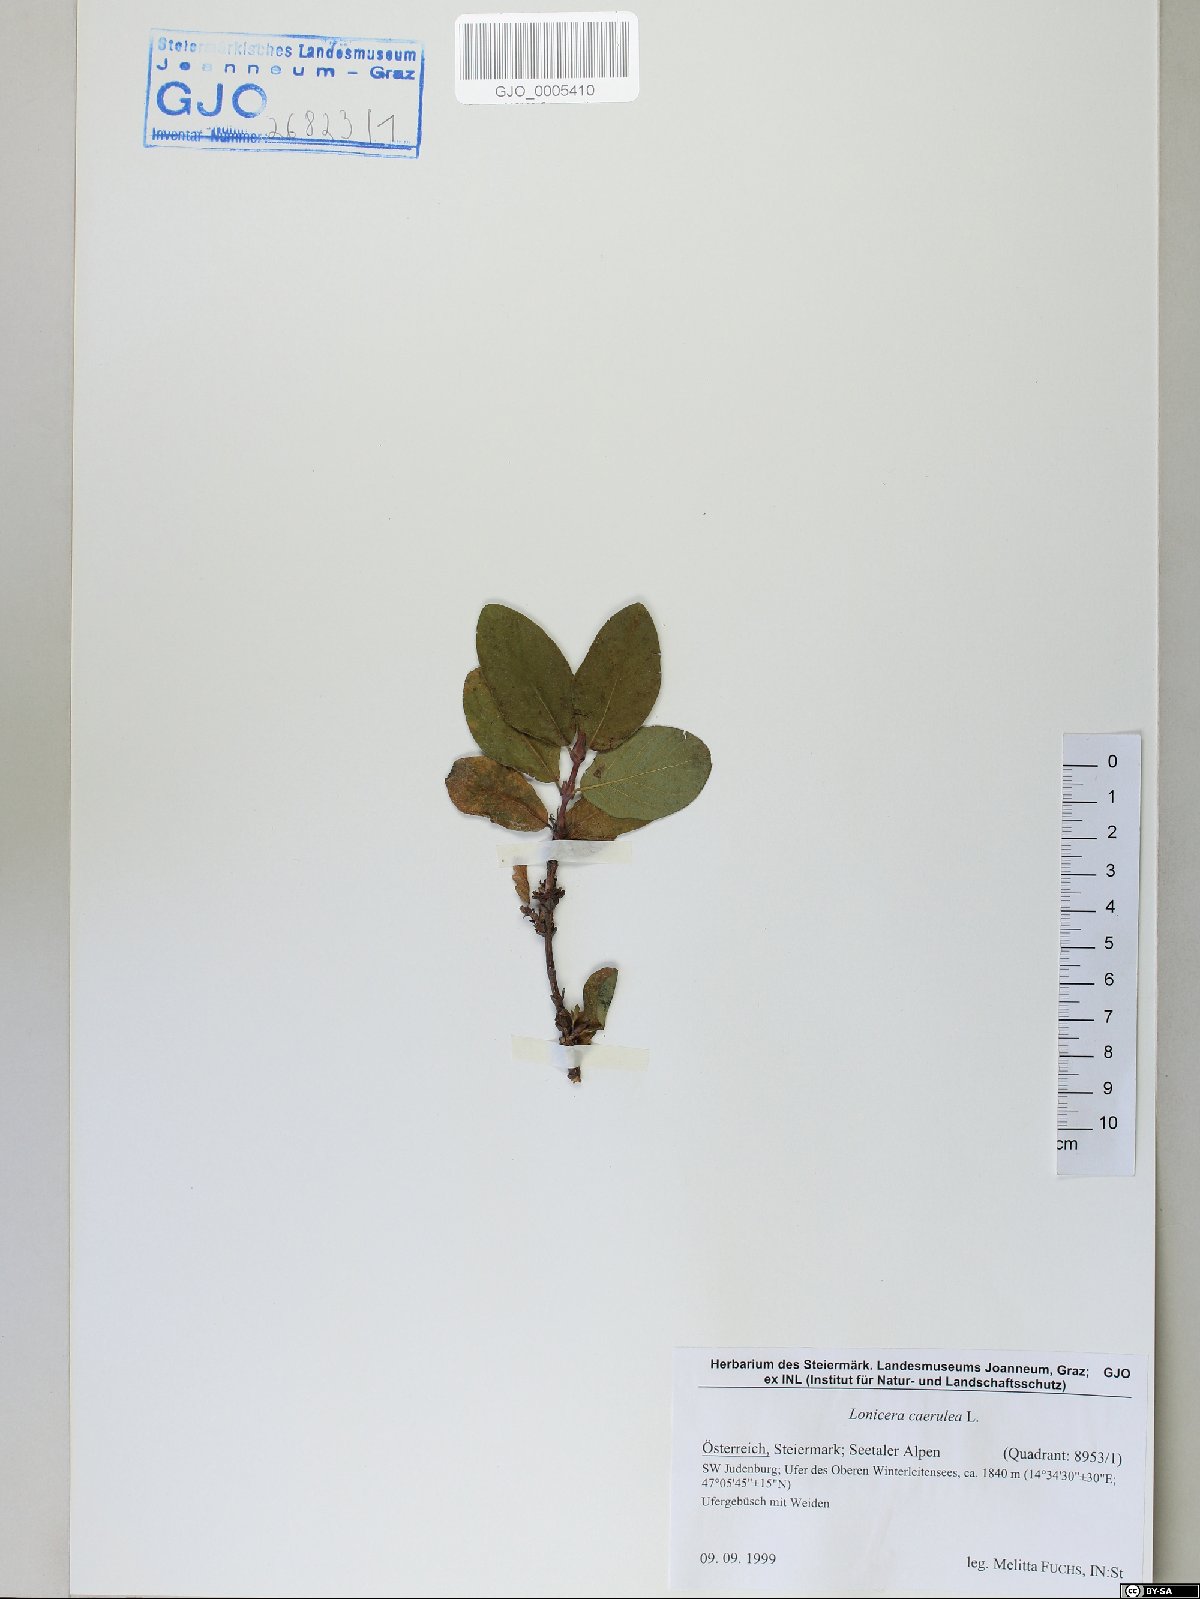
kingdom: Plantae
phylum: Tracheophyta
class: Magnoliopsida
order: Dipsacales
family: Caprifoliaceae
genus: Lonicera
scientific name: Lonicera caerulea
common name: Blue honeysuckle
